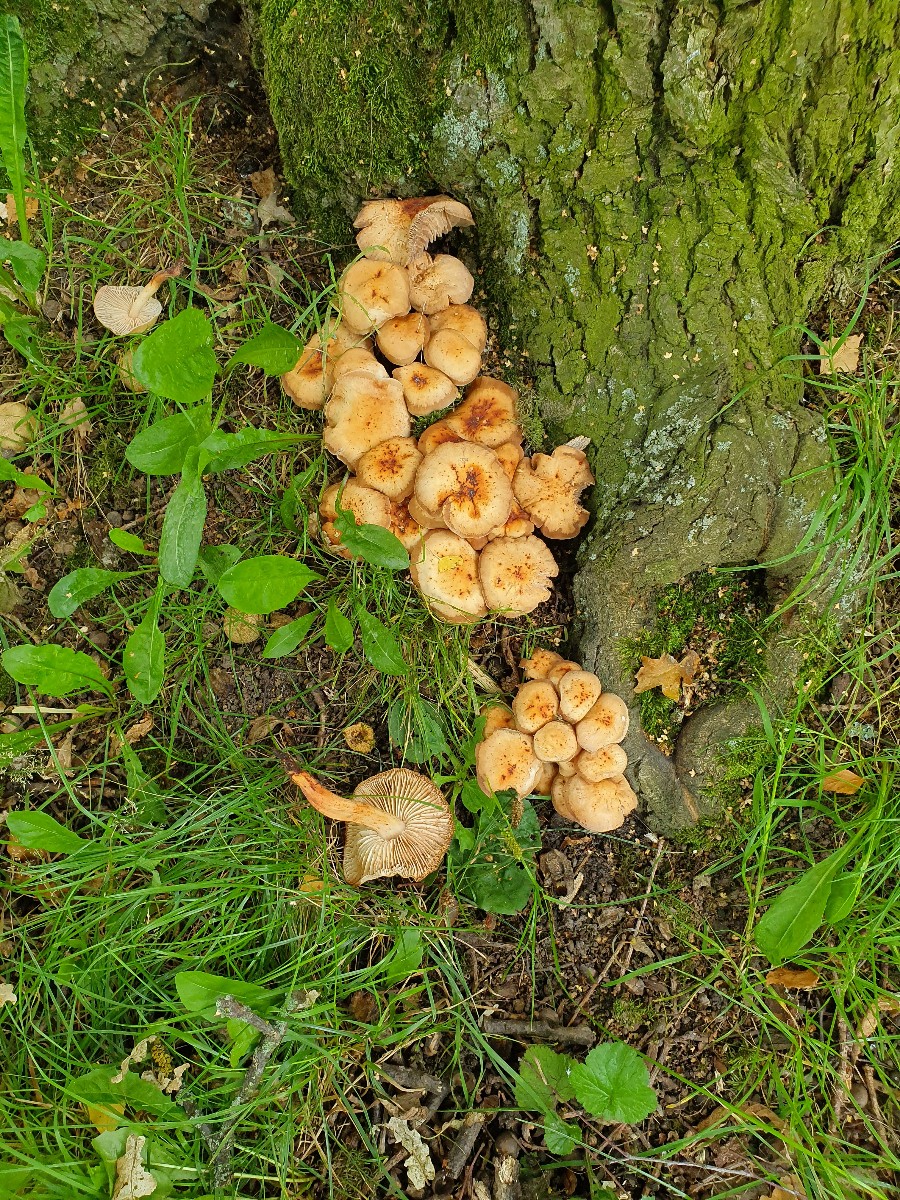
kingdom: Fungi
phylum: Basidiomycota
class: Agaricomycetes
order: Agaricales
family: Omphalotaceae
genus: Gymnopus
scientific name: Gymnopus fusipes
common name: tenstokket fladhat
